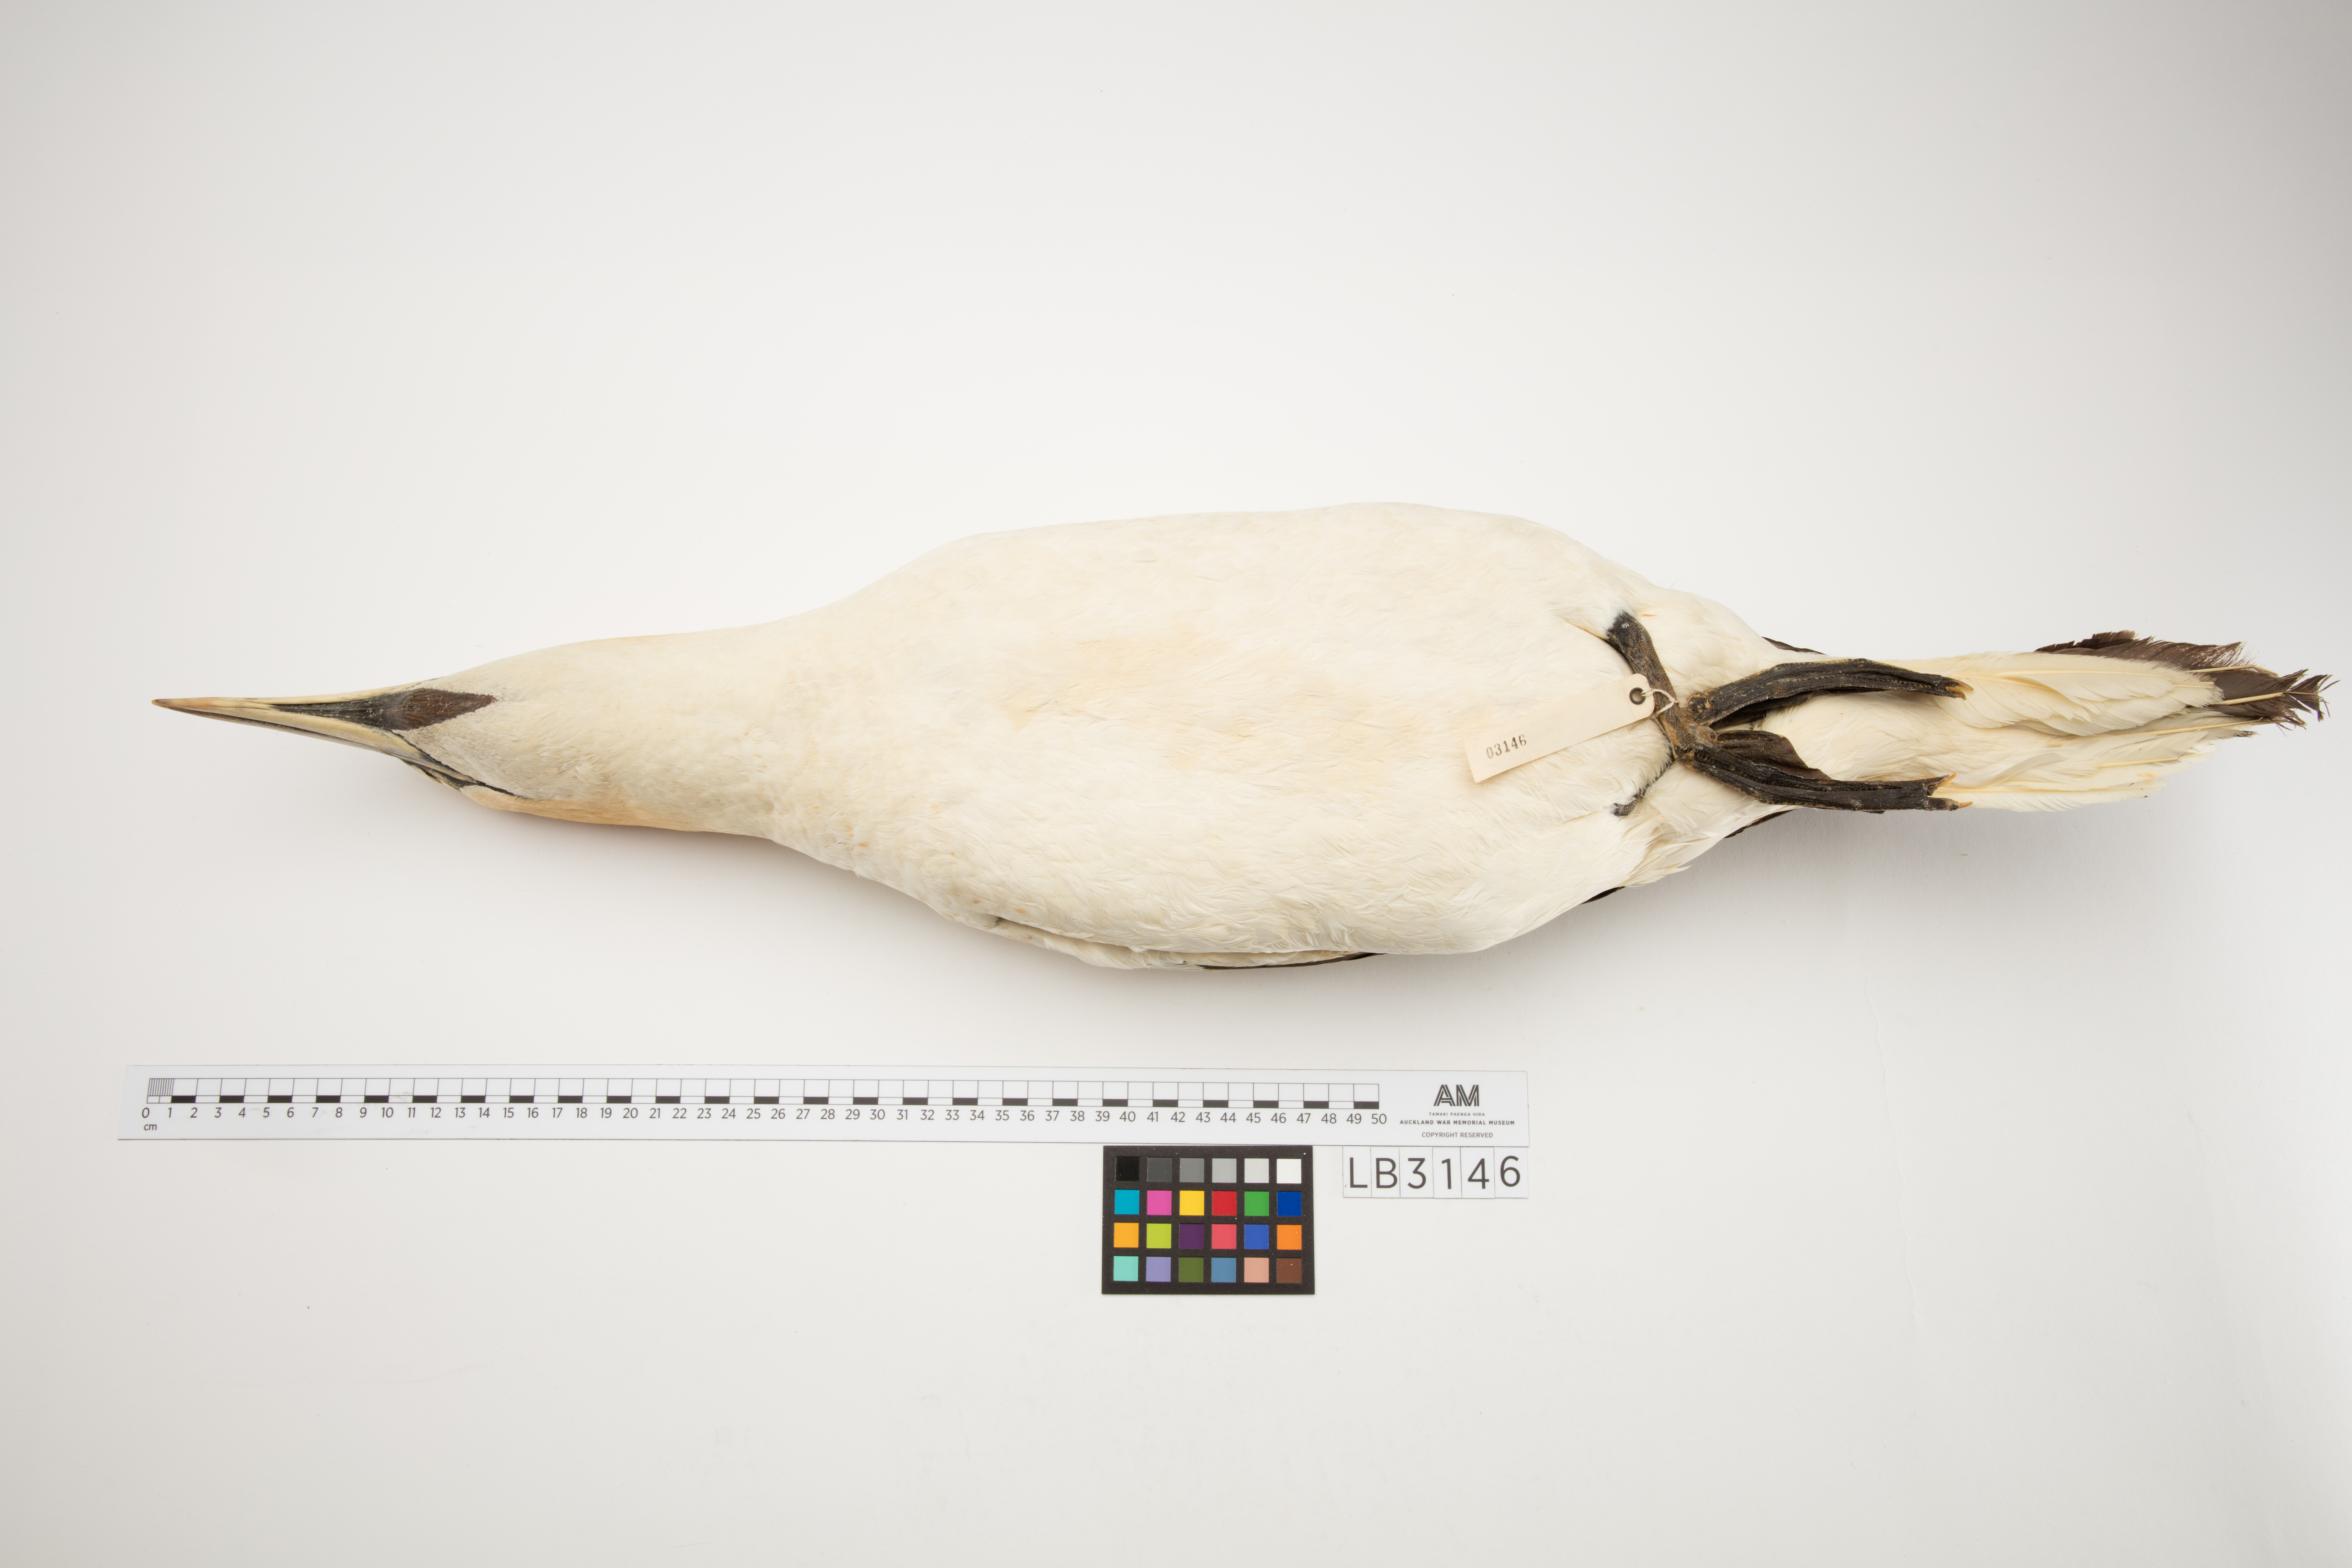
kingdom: Animalia
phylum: Chordata
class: Aves
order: Suliformes
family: Sulidae
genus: Morus
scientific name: Morus serrator
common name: Australasian gannet
